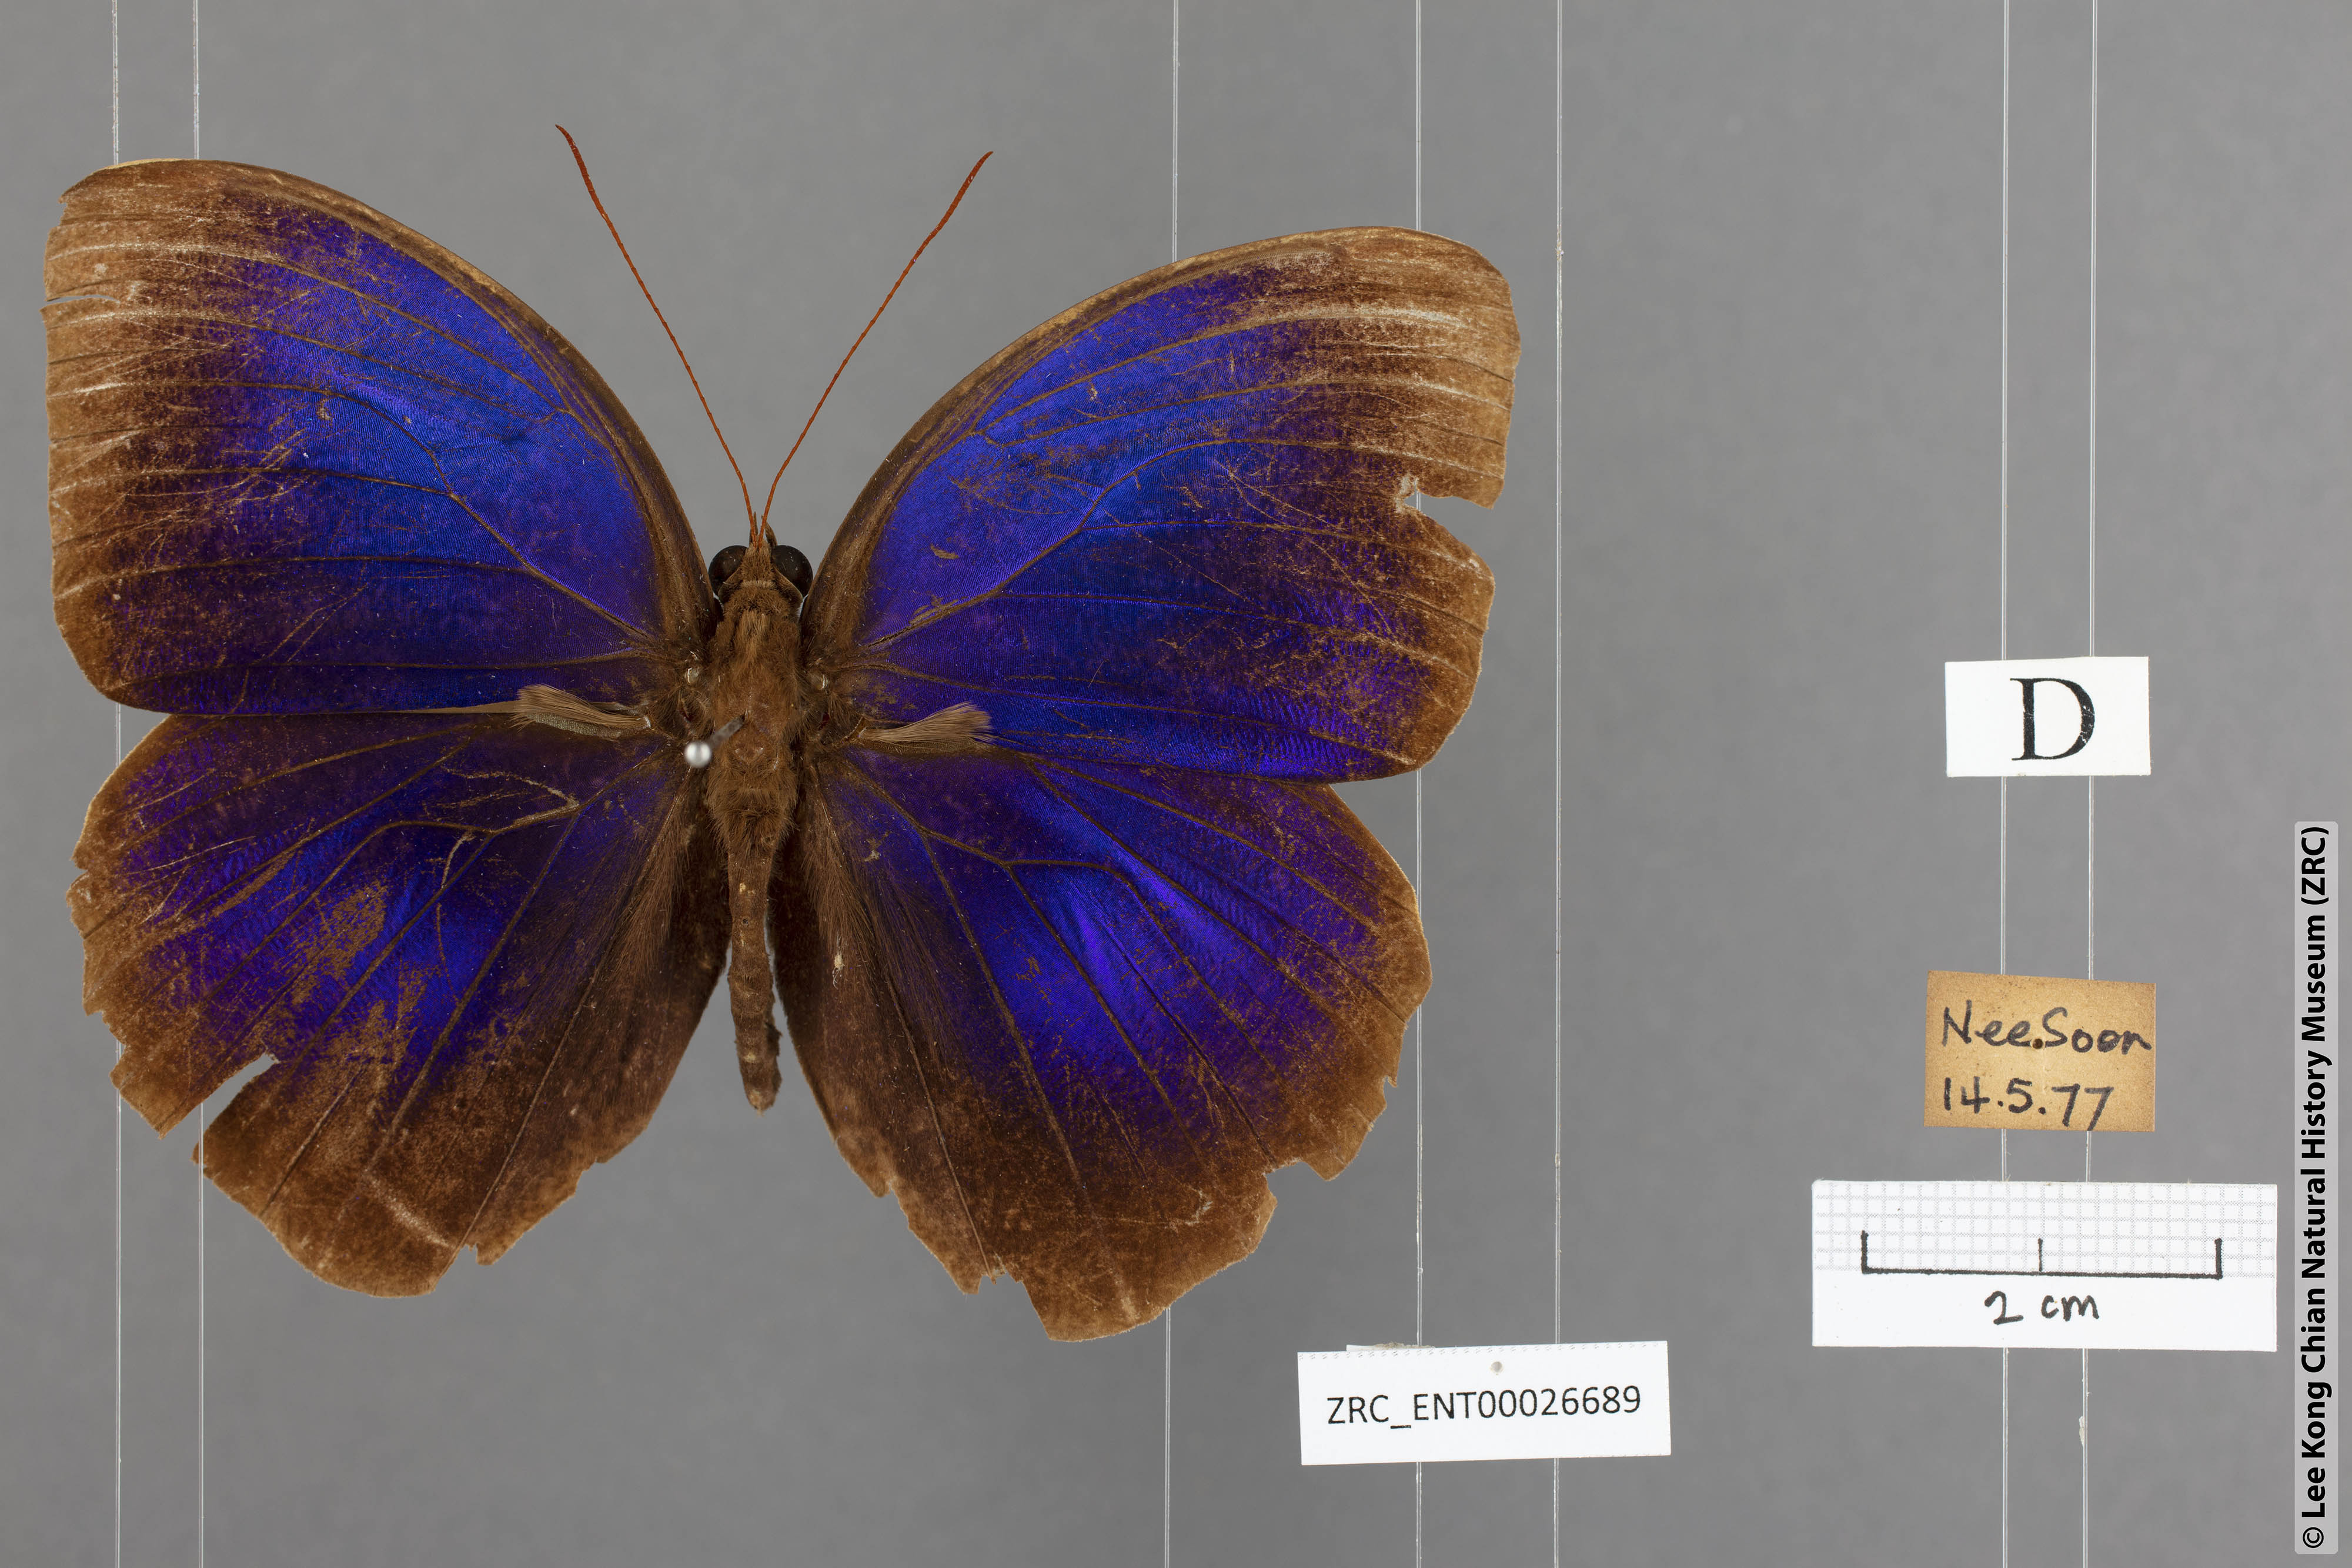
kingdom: Animalia
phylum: Arthropoda
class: Insecta
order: Lepidoptera
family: Nymphalidae
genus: Thaumantis
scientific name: Thaumantis klugius
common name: Dark blue jungle glory
